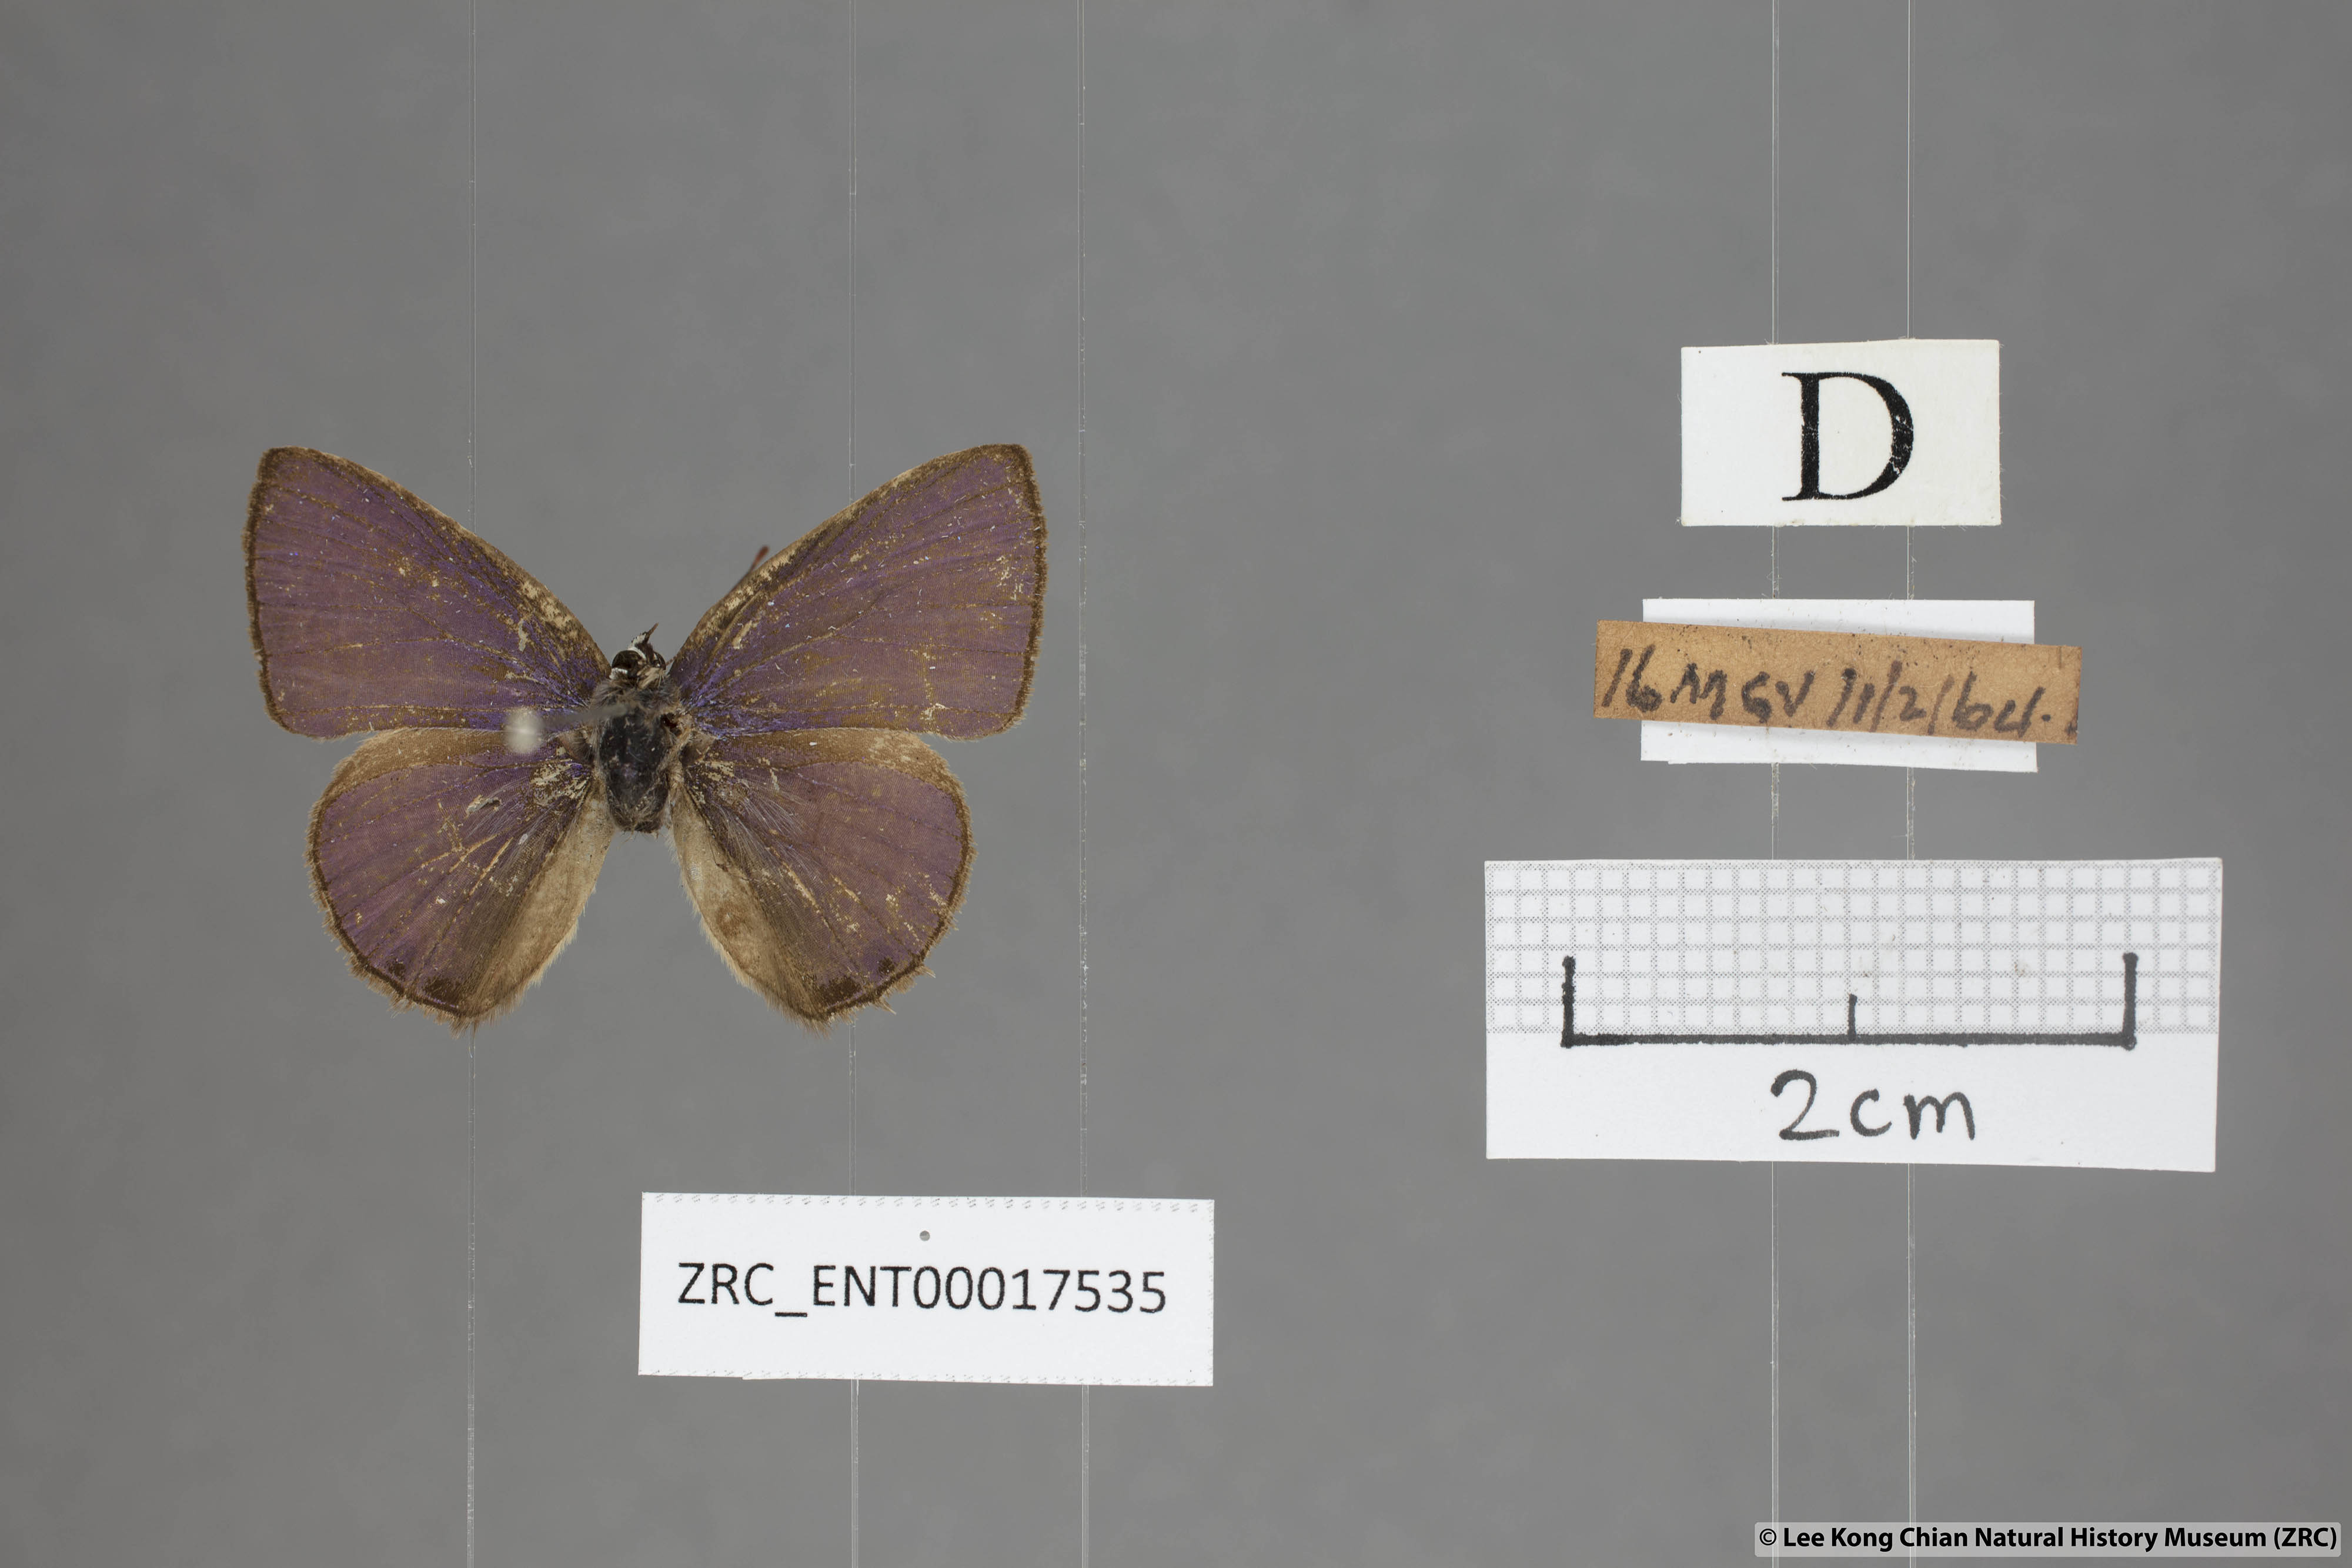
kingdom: Animalia
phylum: Arthropoda
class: Insecta
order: Lepidoptera
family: Lycaenidae
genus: Anthene
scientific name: Anthene emolus
